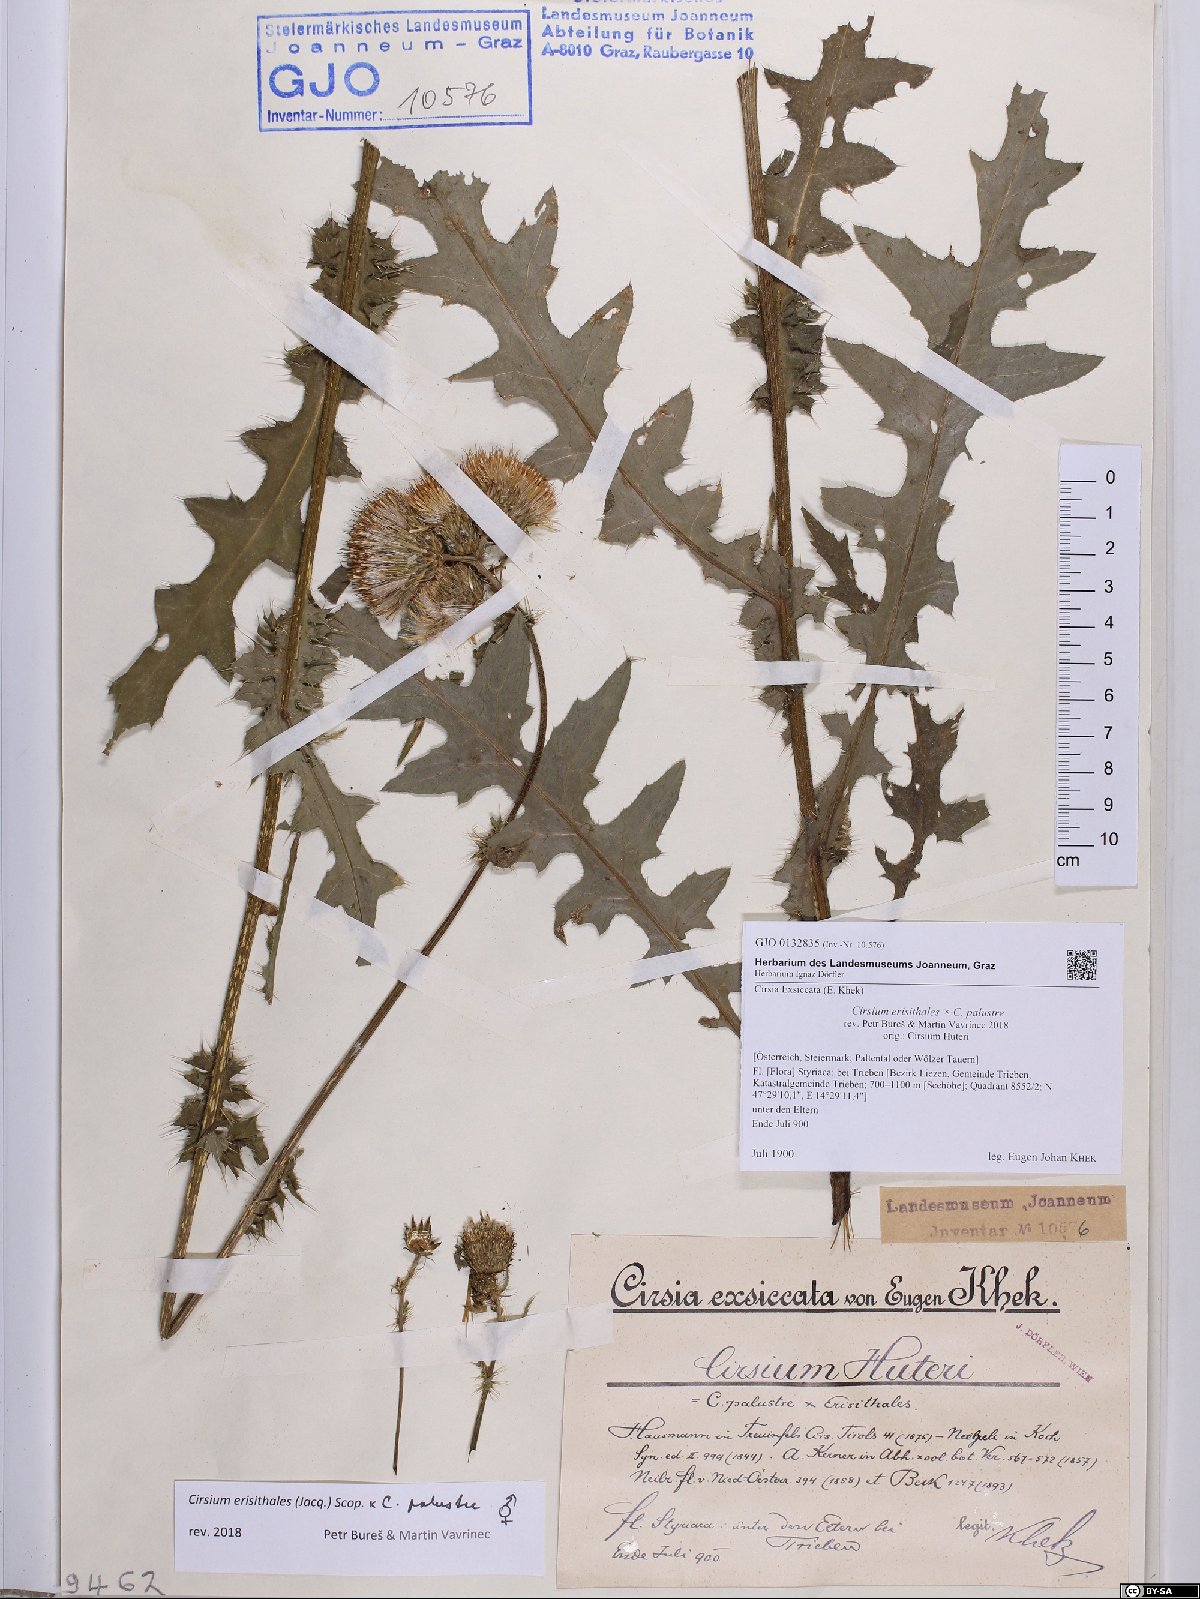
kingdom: Plantae
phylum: Tracheophyta
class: Magnoliopsida
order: Asterales
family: Asteraceae
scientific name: Asteraceae
